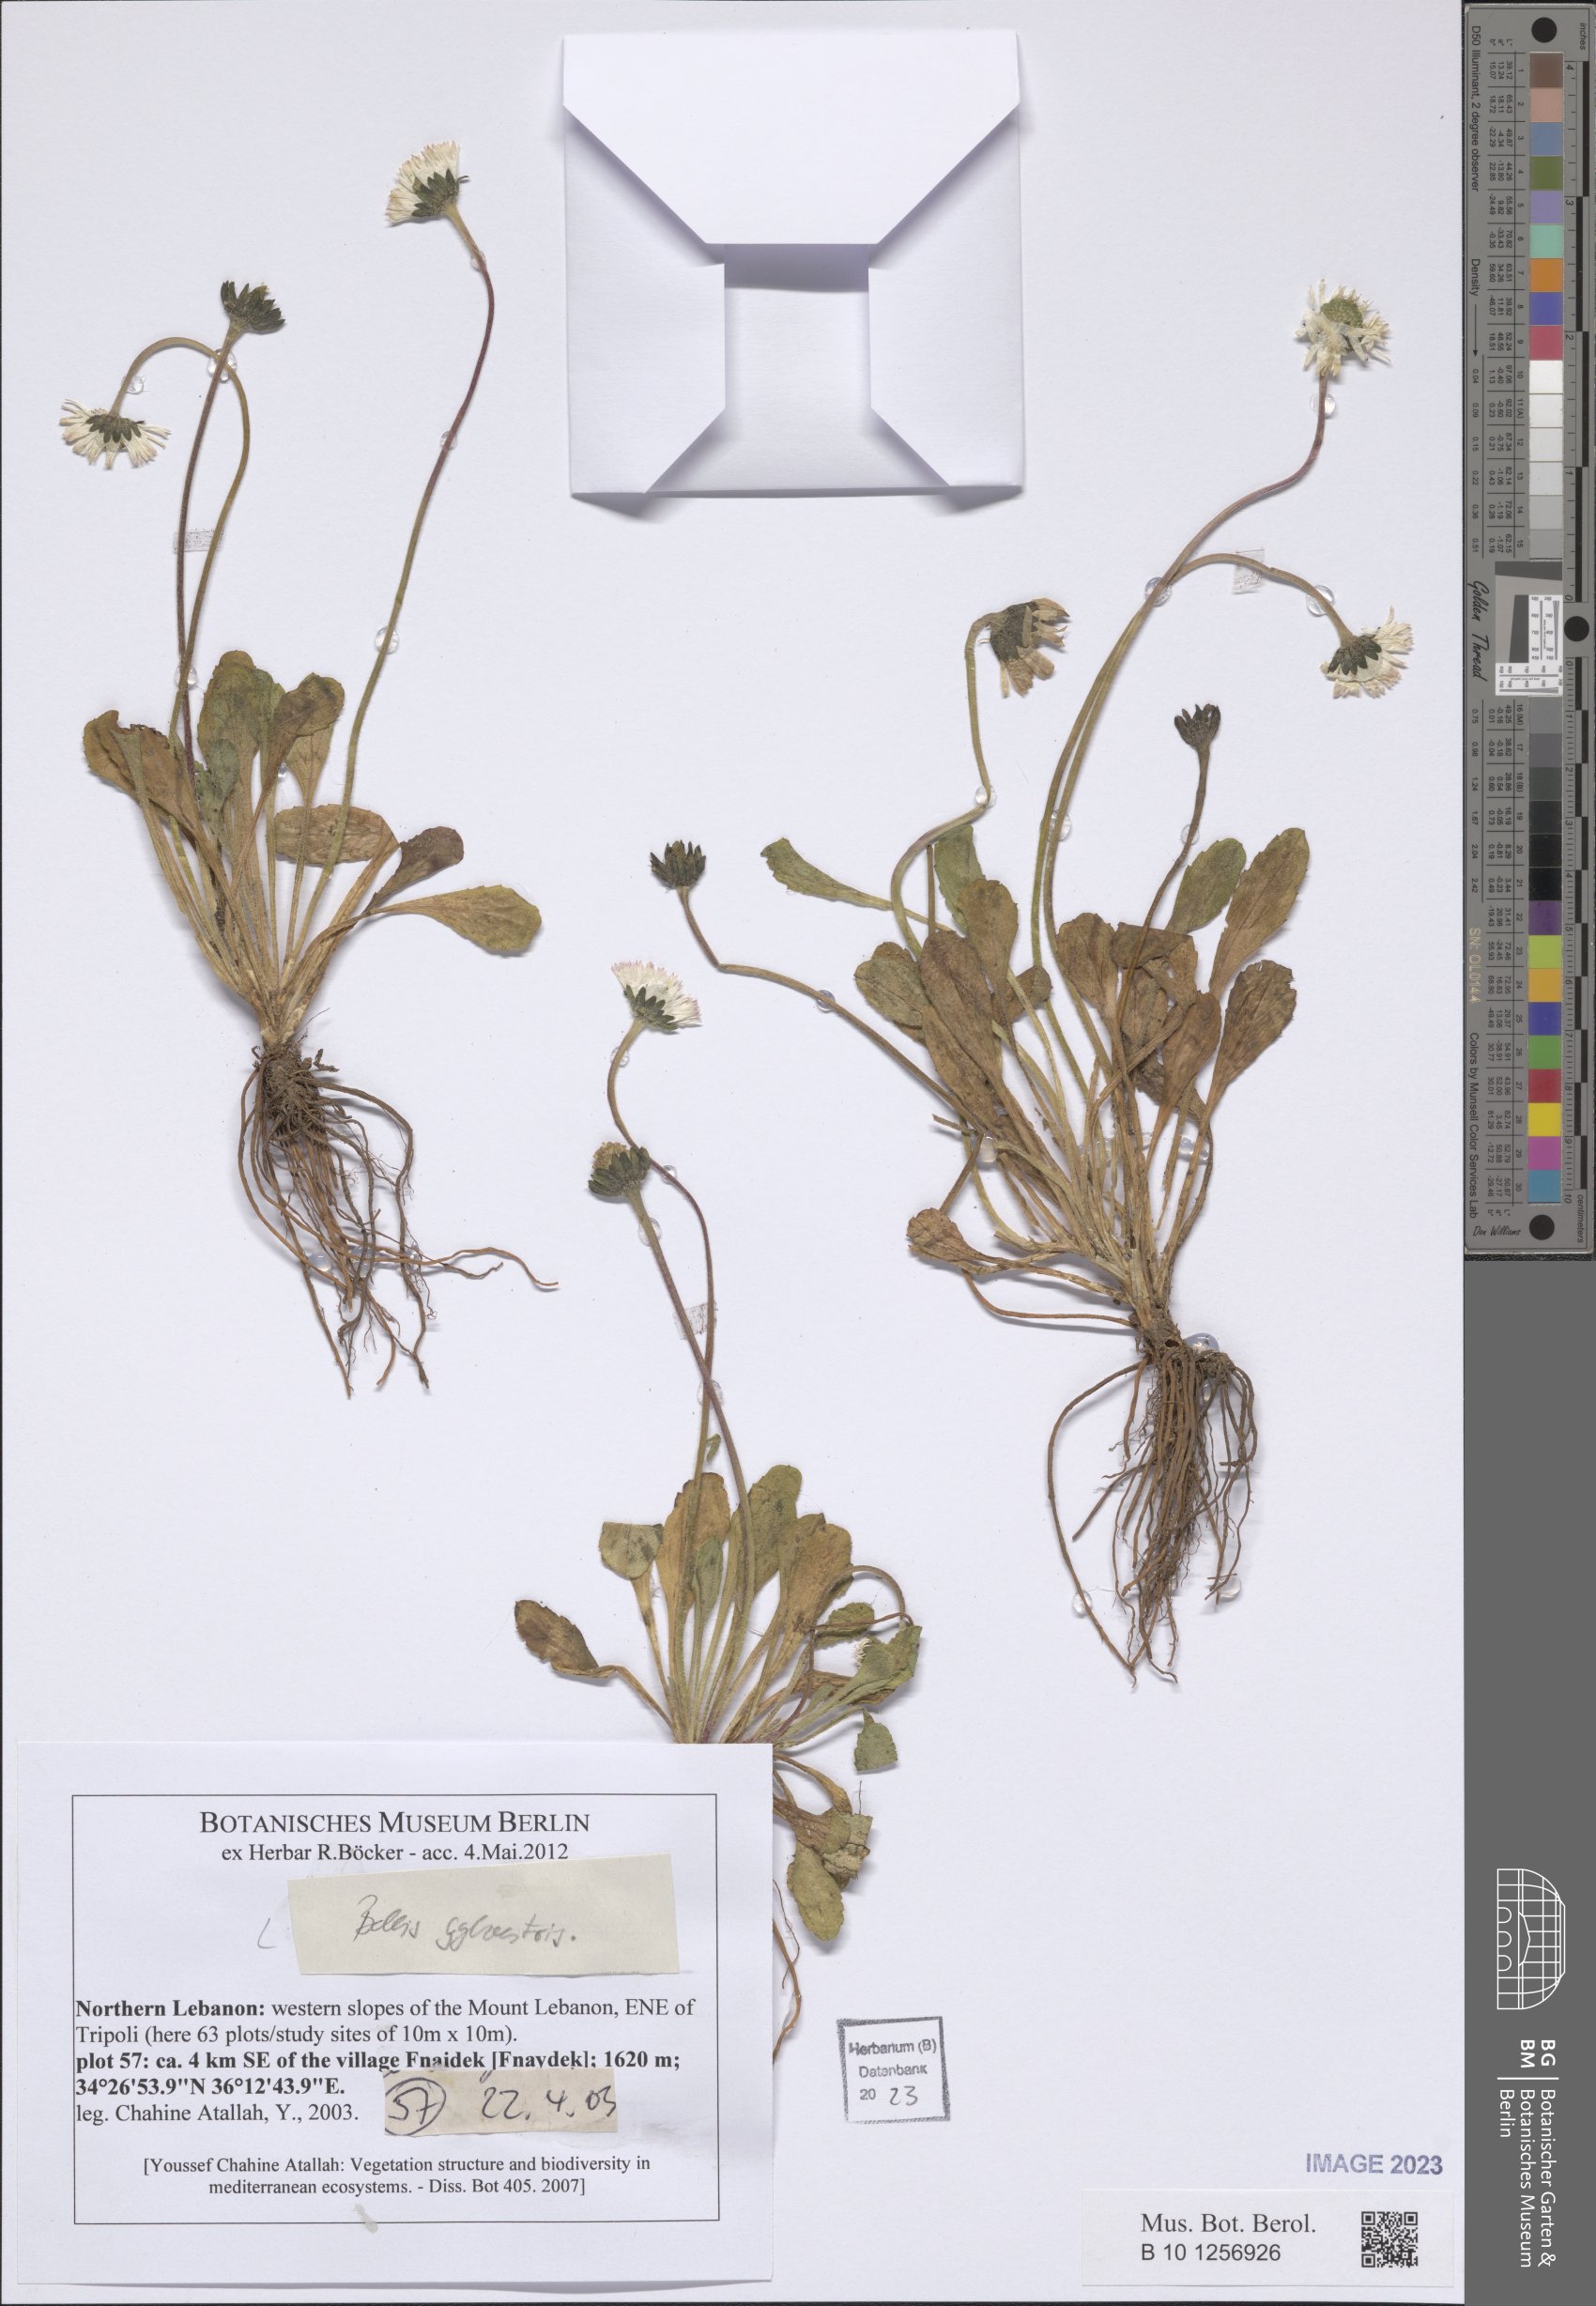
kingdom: Plantae
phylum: Tracheophyta
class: Magnoliopsida
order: Asterales
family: Asteraceae
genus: Bellis
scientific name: Bellis sylvestris
